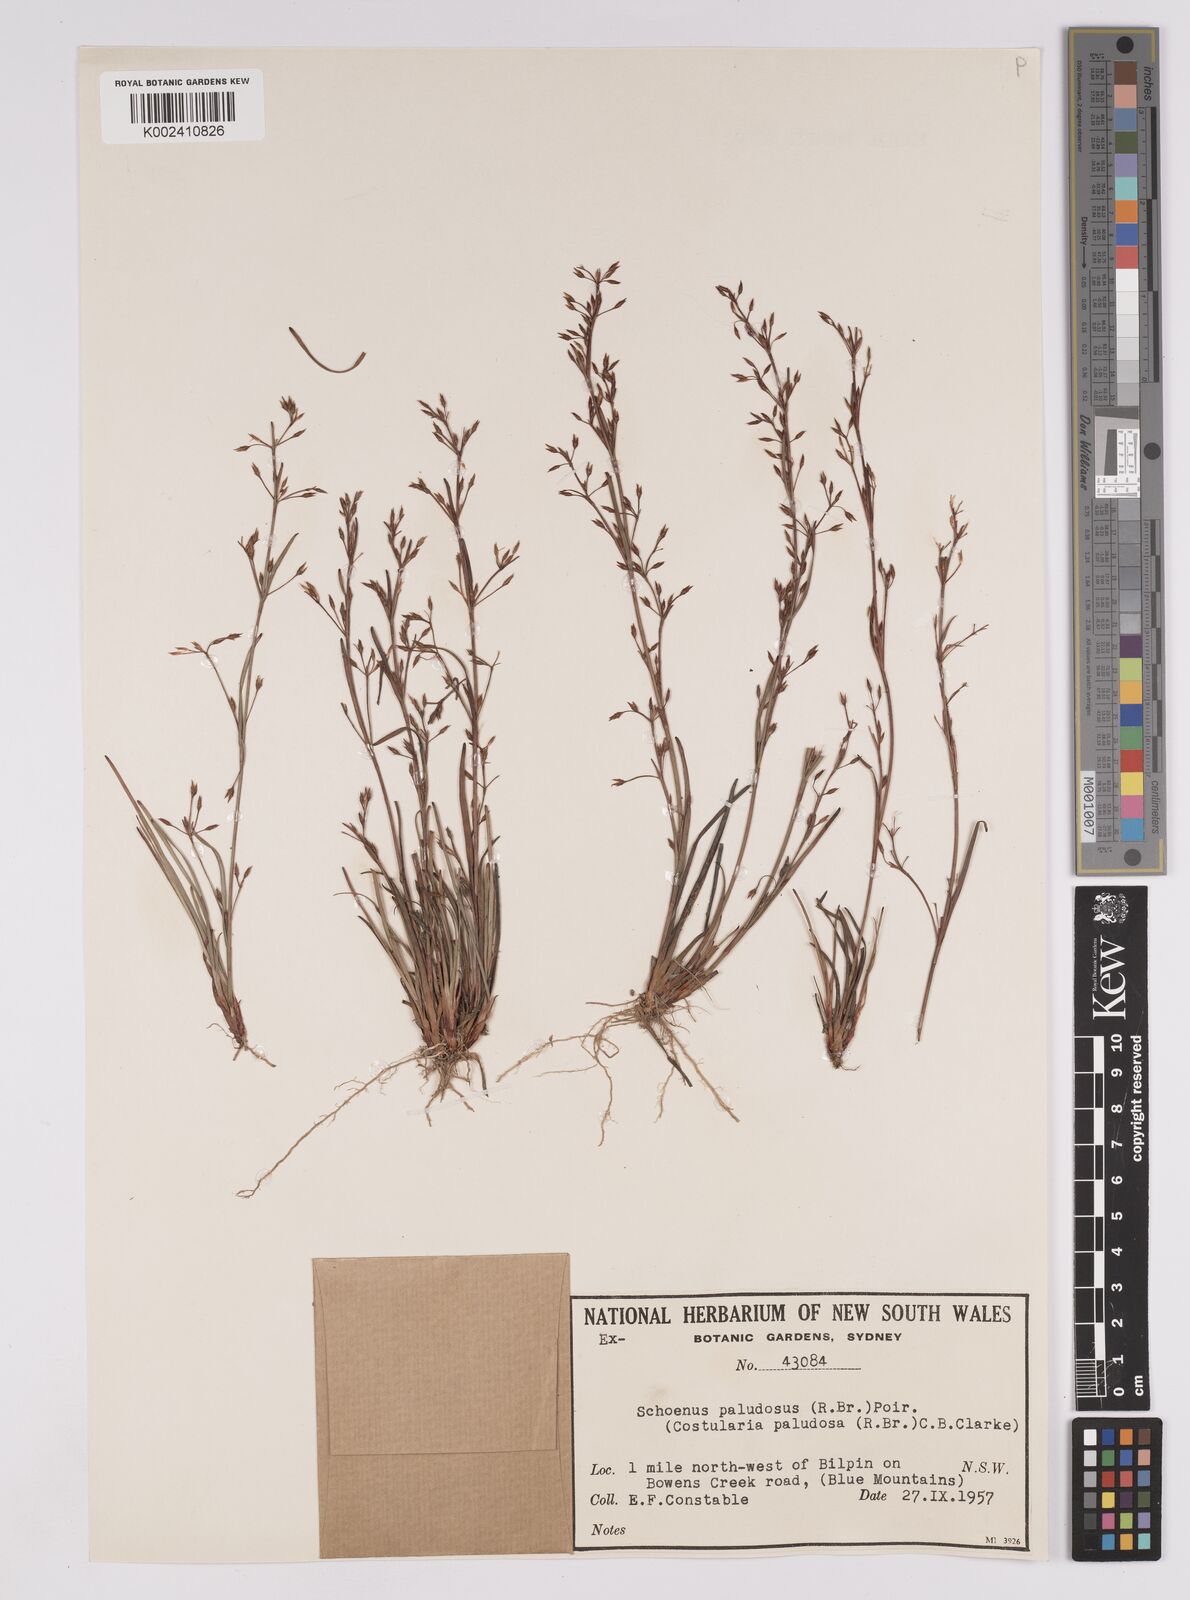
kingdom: Plantae
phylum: Tracheophyta
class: Liliopsida
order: Poales
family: Cyperaceae
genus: Anthelepis
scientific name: Anthelepis paludosa
